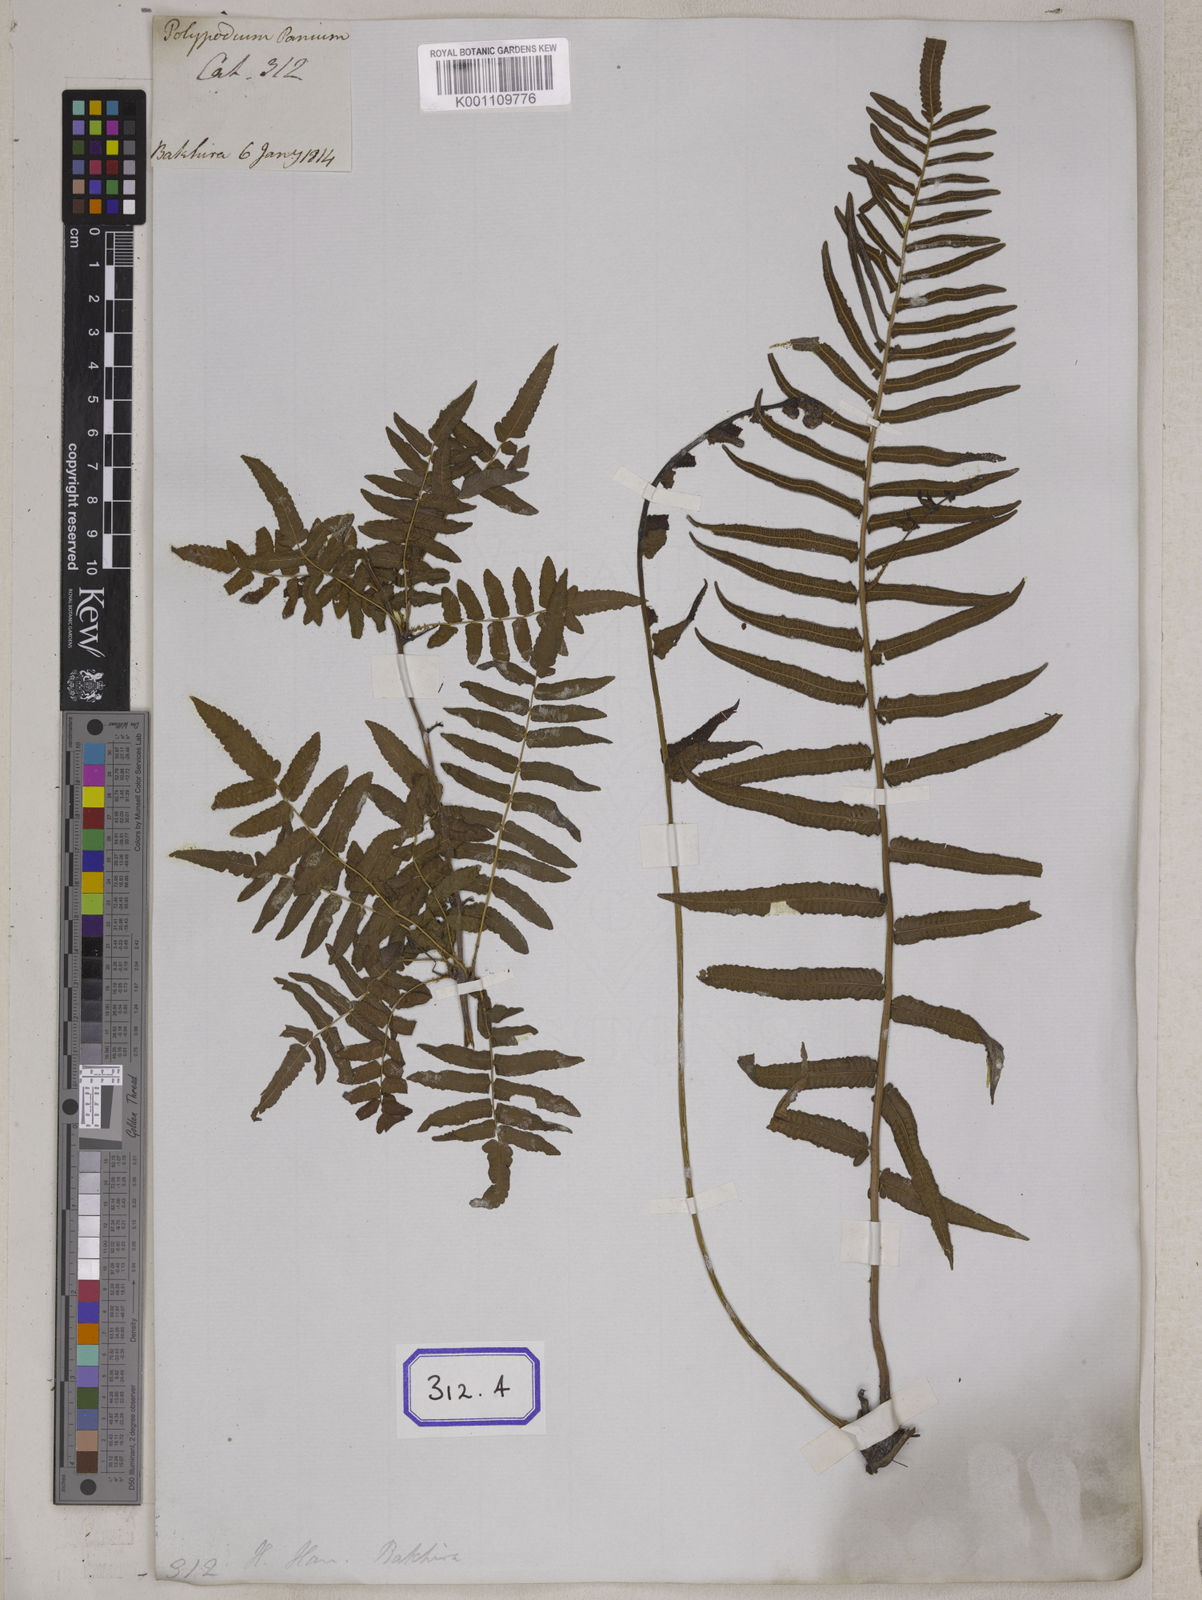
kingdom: Plantae
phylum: Tracheophyta
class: Polypodiopsida
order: Polypodiales
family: Polypodiaceae
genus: Polypodium
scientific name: Polypodium
